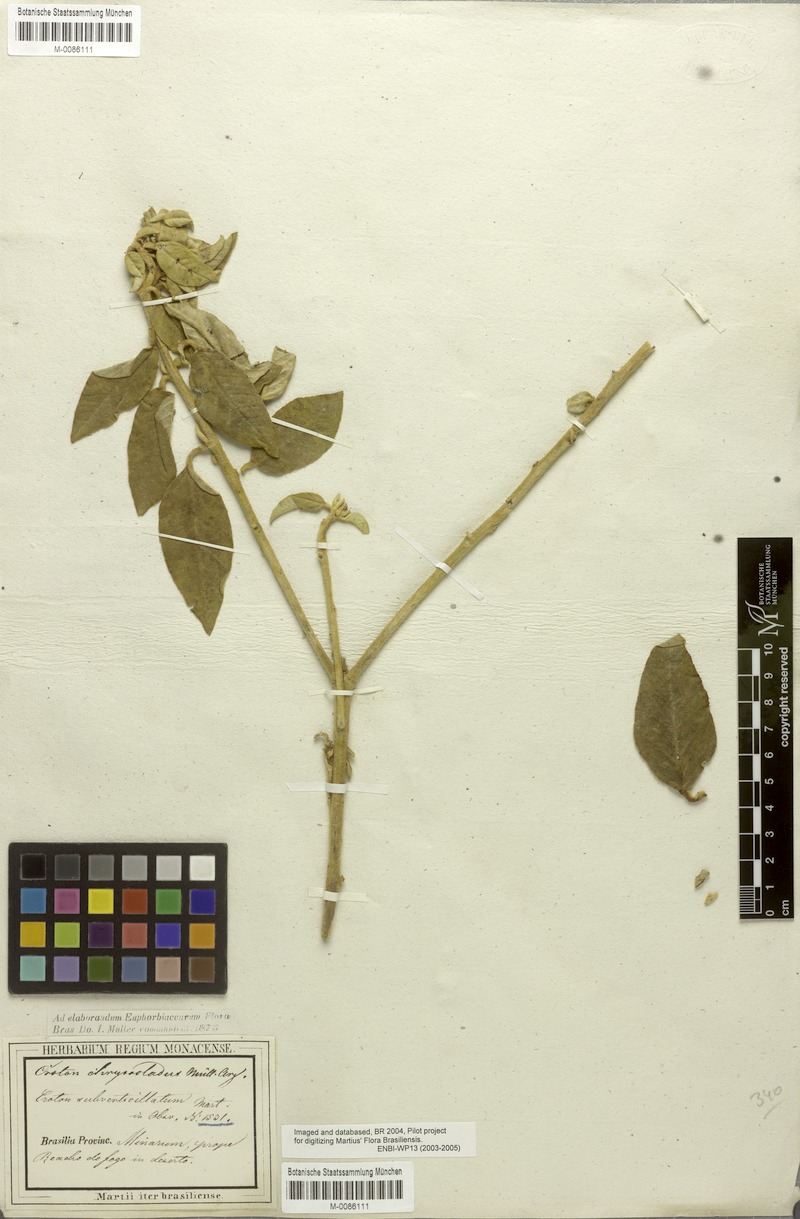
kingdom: Plantae
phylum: Tracheophyta
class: Magnoliopsida
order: Malpighiales
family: Euphorbiaceae
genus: Croton
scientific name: Croton chrysocladus
